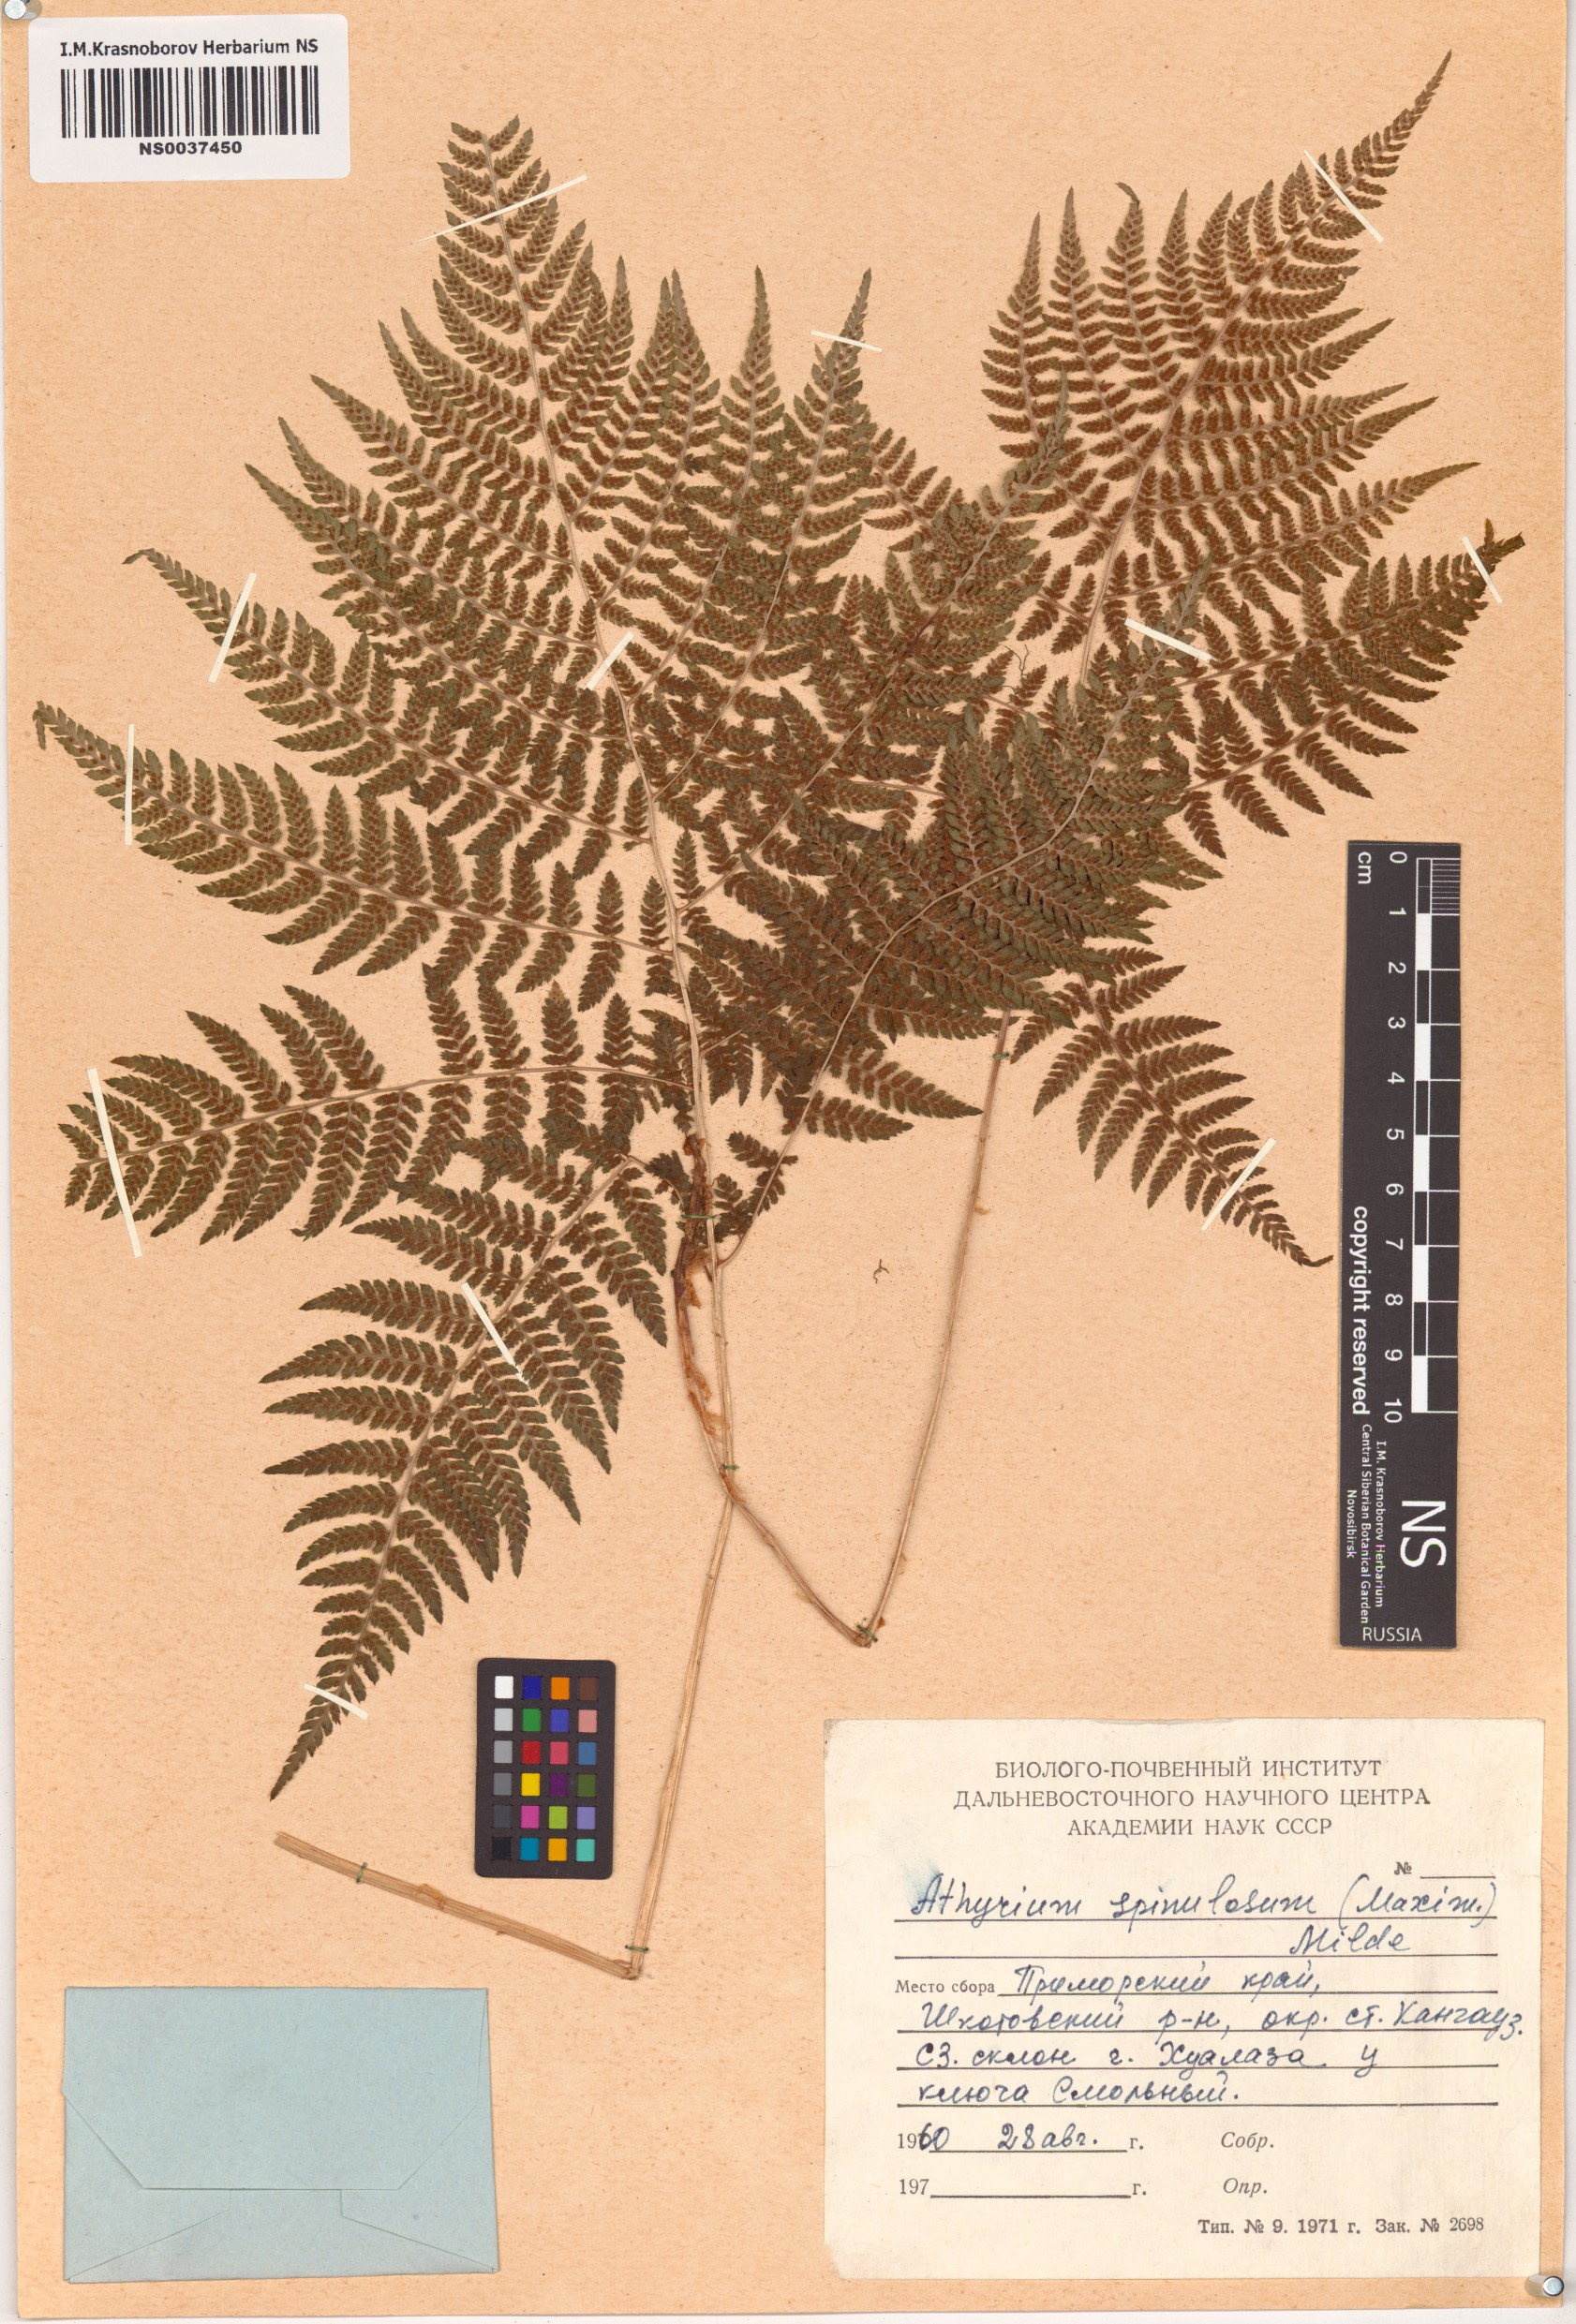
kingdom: Plantae
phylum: Tracheophyta
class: Polypodiopsida
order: Polypodiales
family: Athyriaceae
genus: Athyrium
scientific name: Athyrium spinulosum
